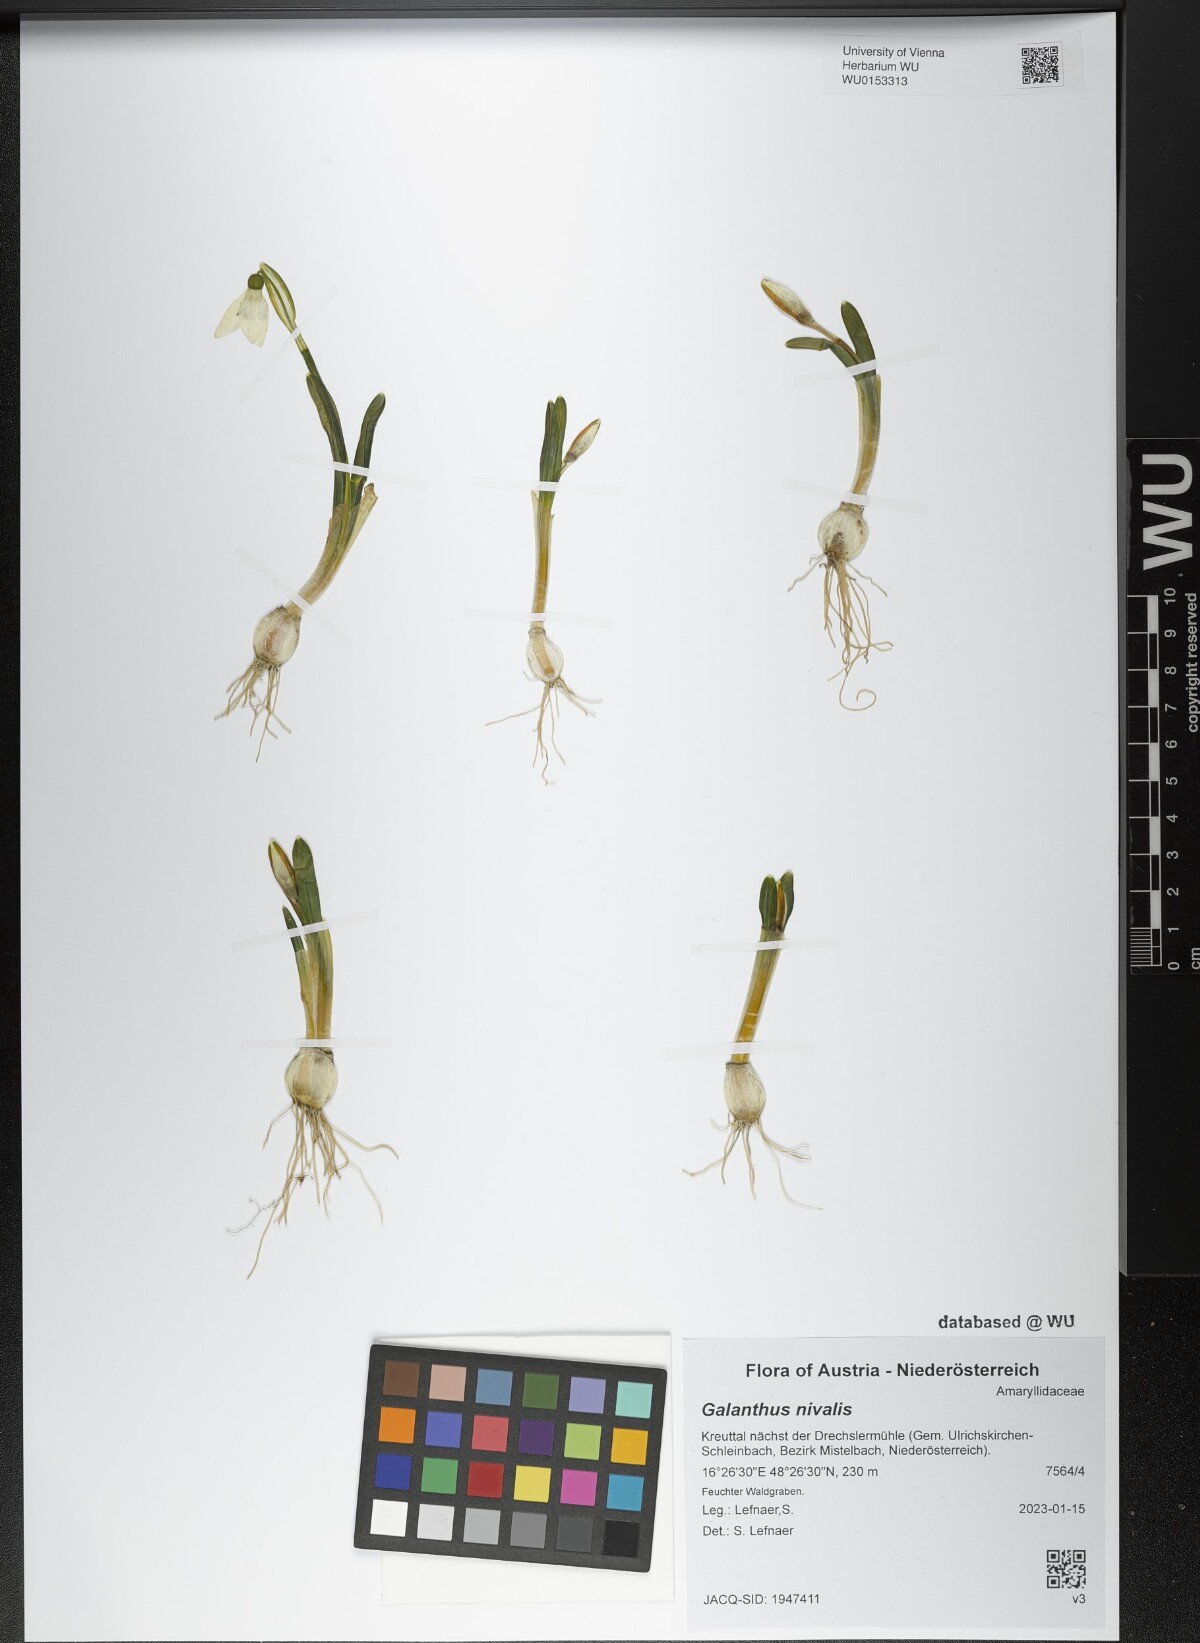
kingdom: Plantae
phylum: Tracheophyta
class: Liliopsida
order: Asparagales
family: Amaryllidaceae
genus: Galanthus
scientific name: Galanthus nivalis
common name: Snowdrop
